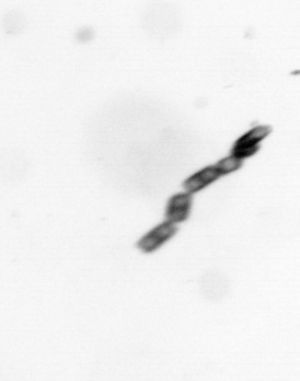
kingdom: Chromista
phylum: Ochrophyta
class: Bacillariophyceae
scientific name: Bacillariophyceae
